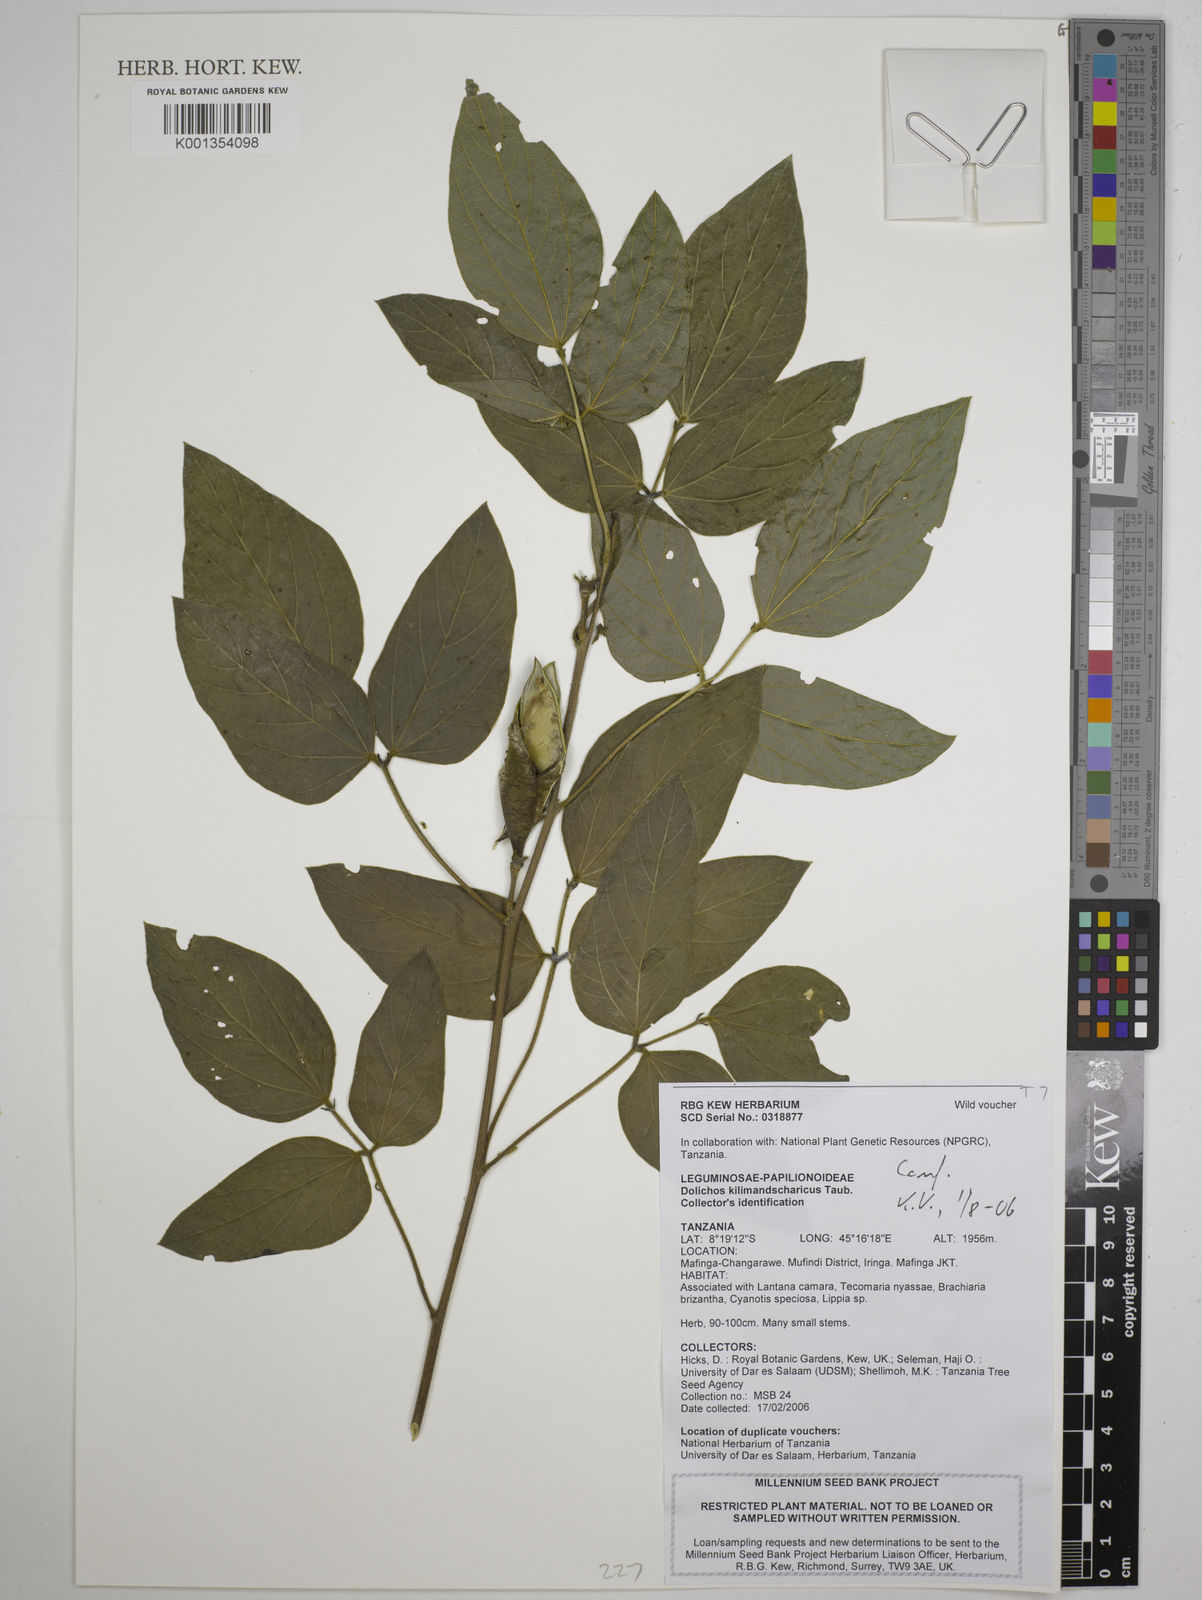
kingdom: Plantae
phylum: Tracheophyta
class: Magnoliopsida
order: Fabales
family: Fabaceae
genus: Dolichos
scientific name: Dolichos kilimandscharicus
